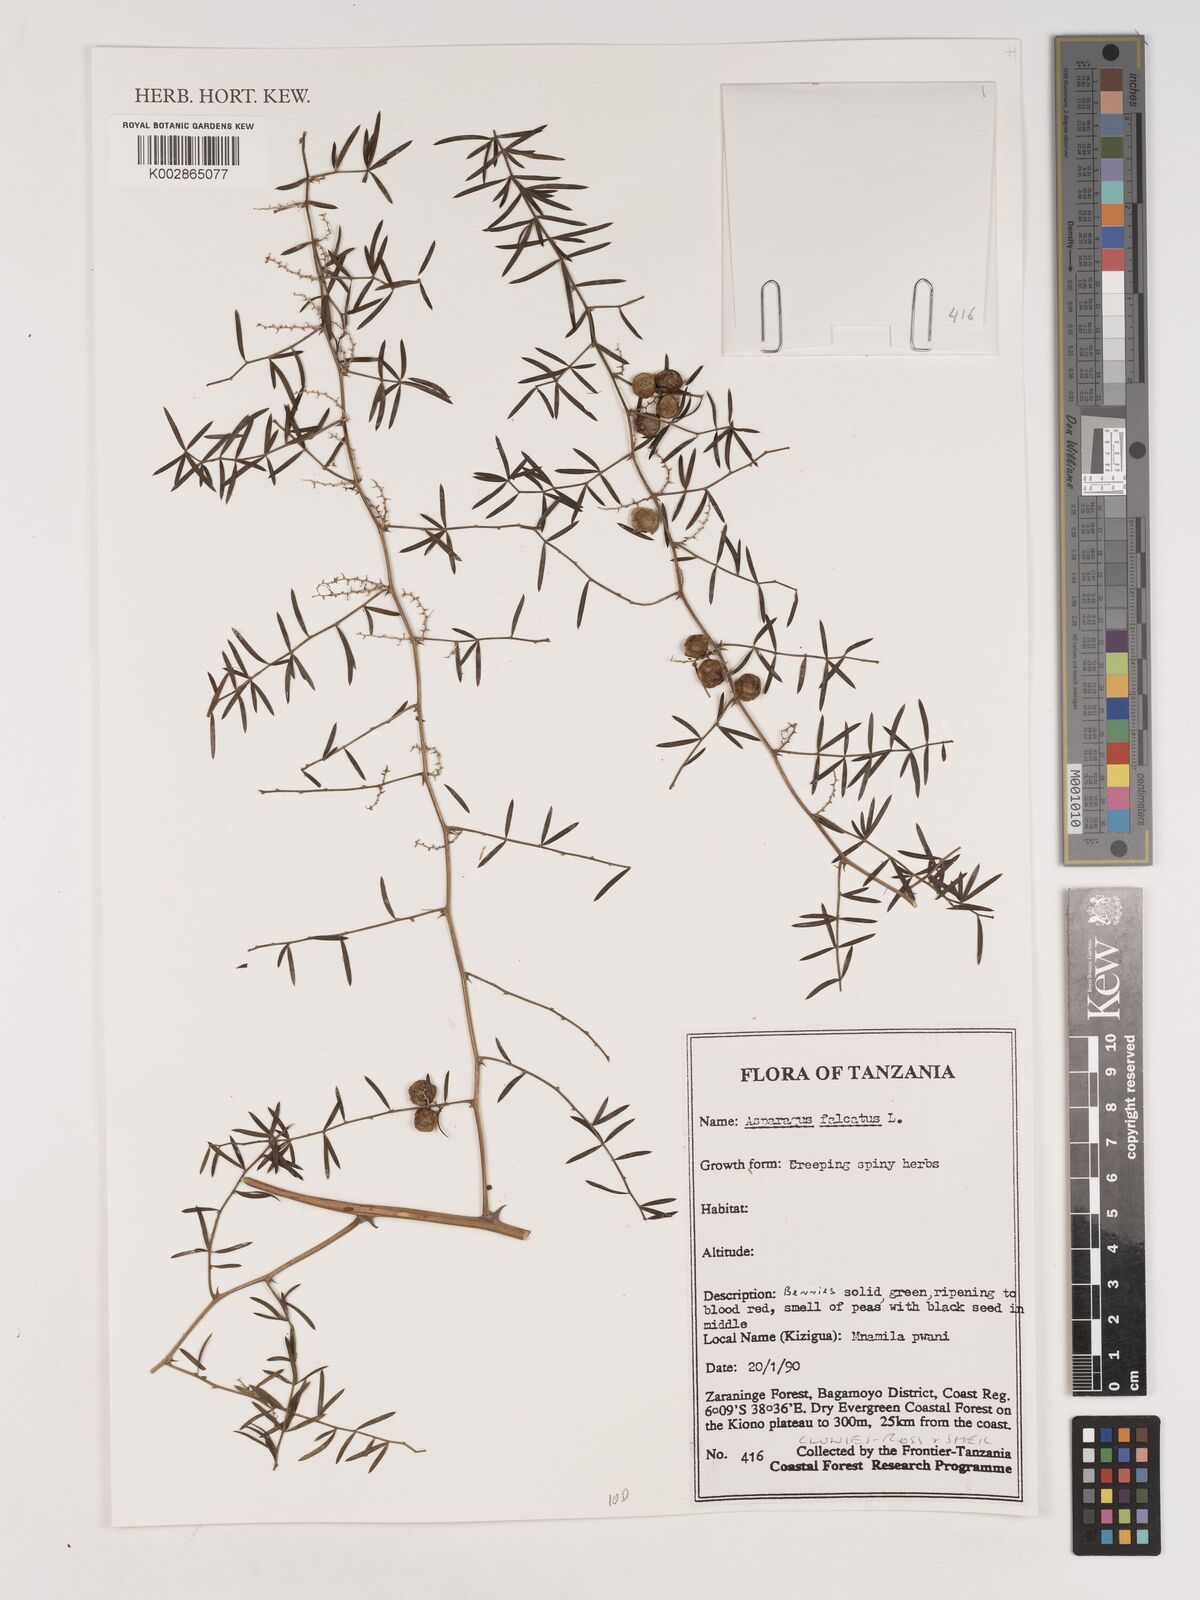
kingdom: Plantae
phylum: Tracheophyta
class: Liliopsida
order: Asparagales
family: Asparagaceae
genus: Asparagus
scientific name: Asparagus falcatus
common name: Asparagus
